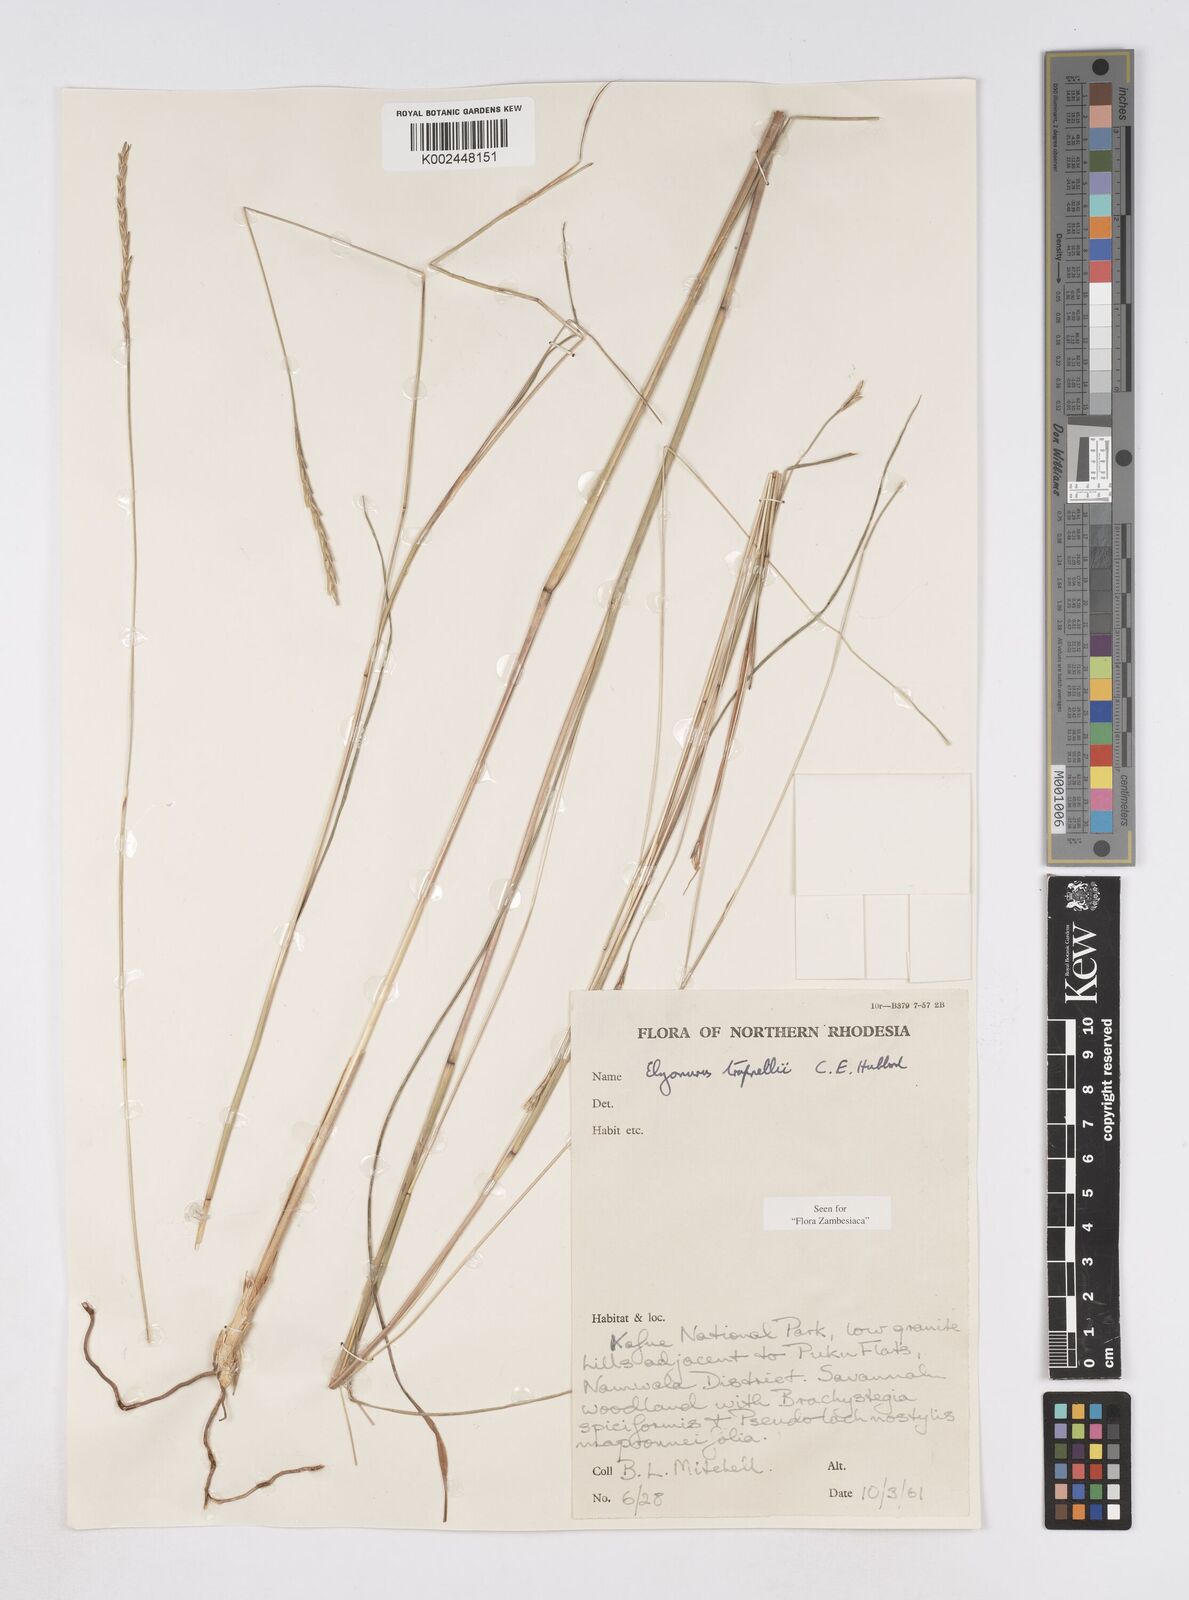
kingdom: Plantae
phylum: Tracheophyta
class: Liliopsida
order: Poales
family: Poaceae
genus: Elionurus
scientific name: Elionurus tripsacoides
